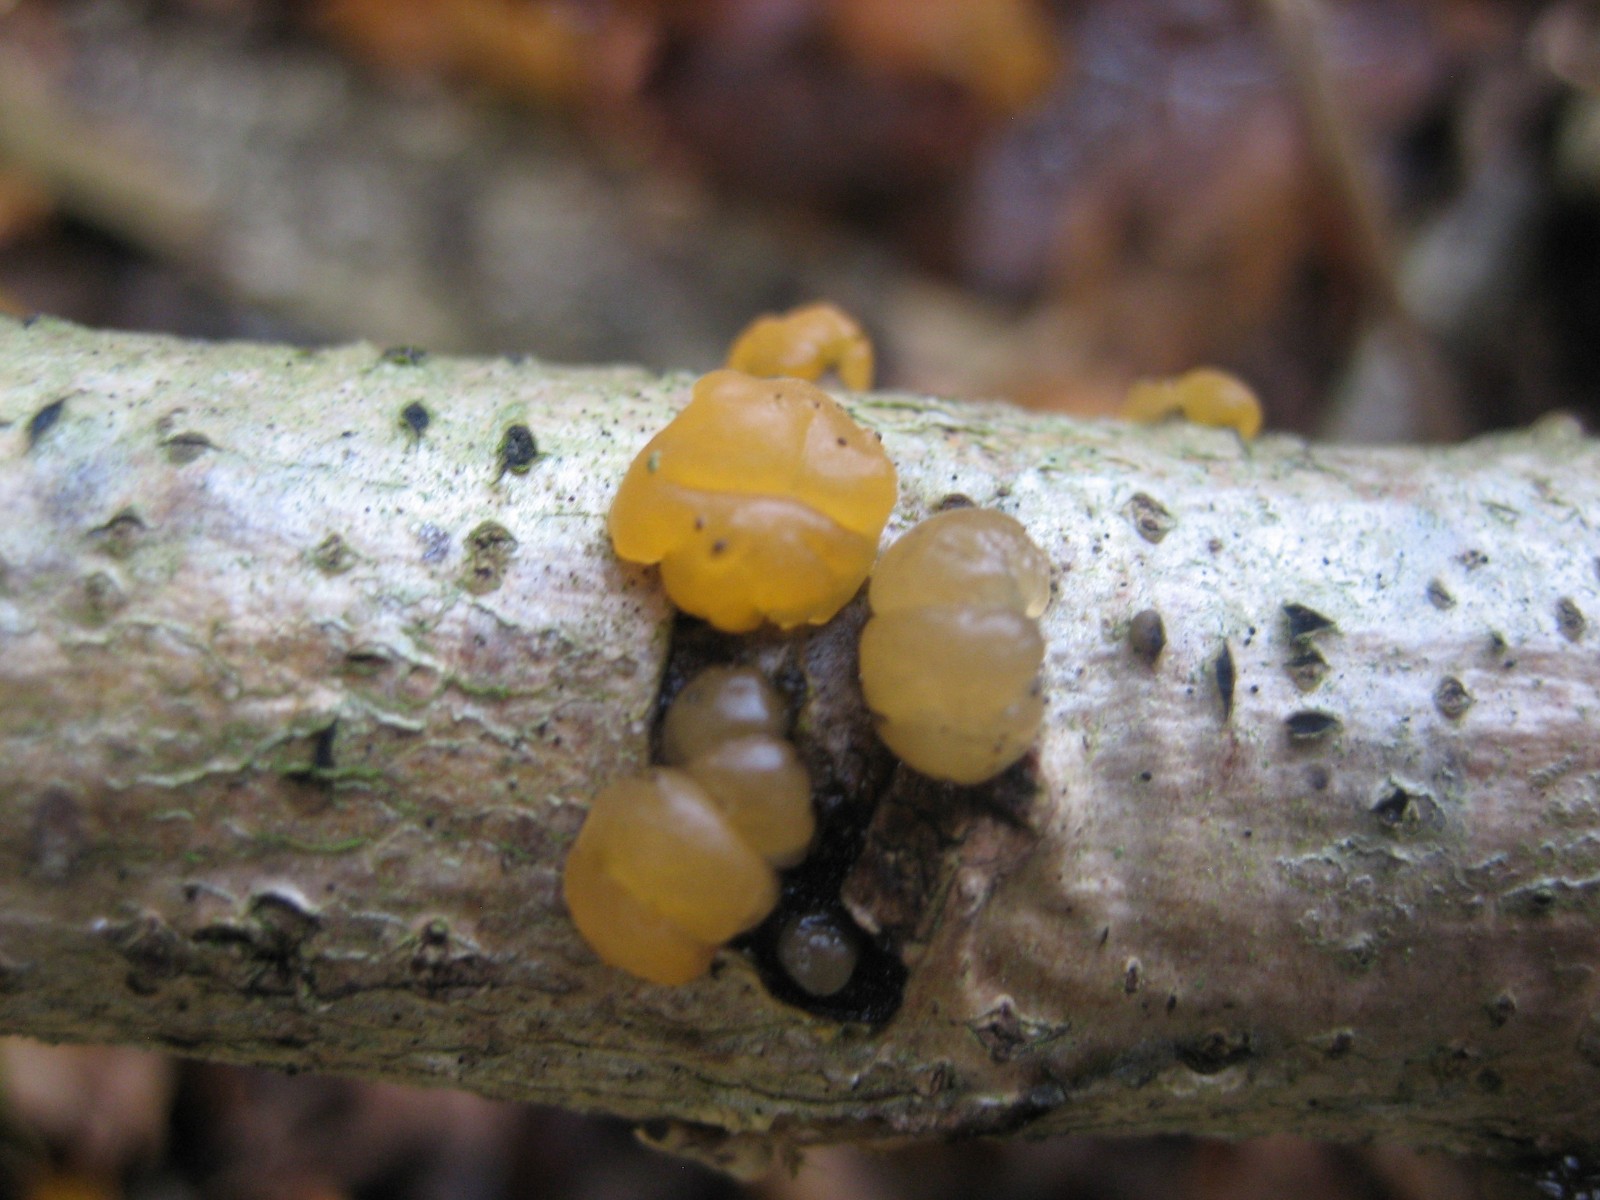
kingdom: Fungi
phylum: Basidiomycota
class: Dacrymycetes
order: Dacrymycetales
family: Dacrymycetaceae
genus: Dacrymyces
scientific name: Dacrymyces
